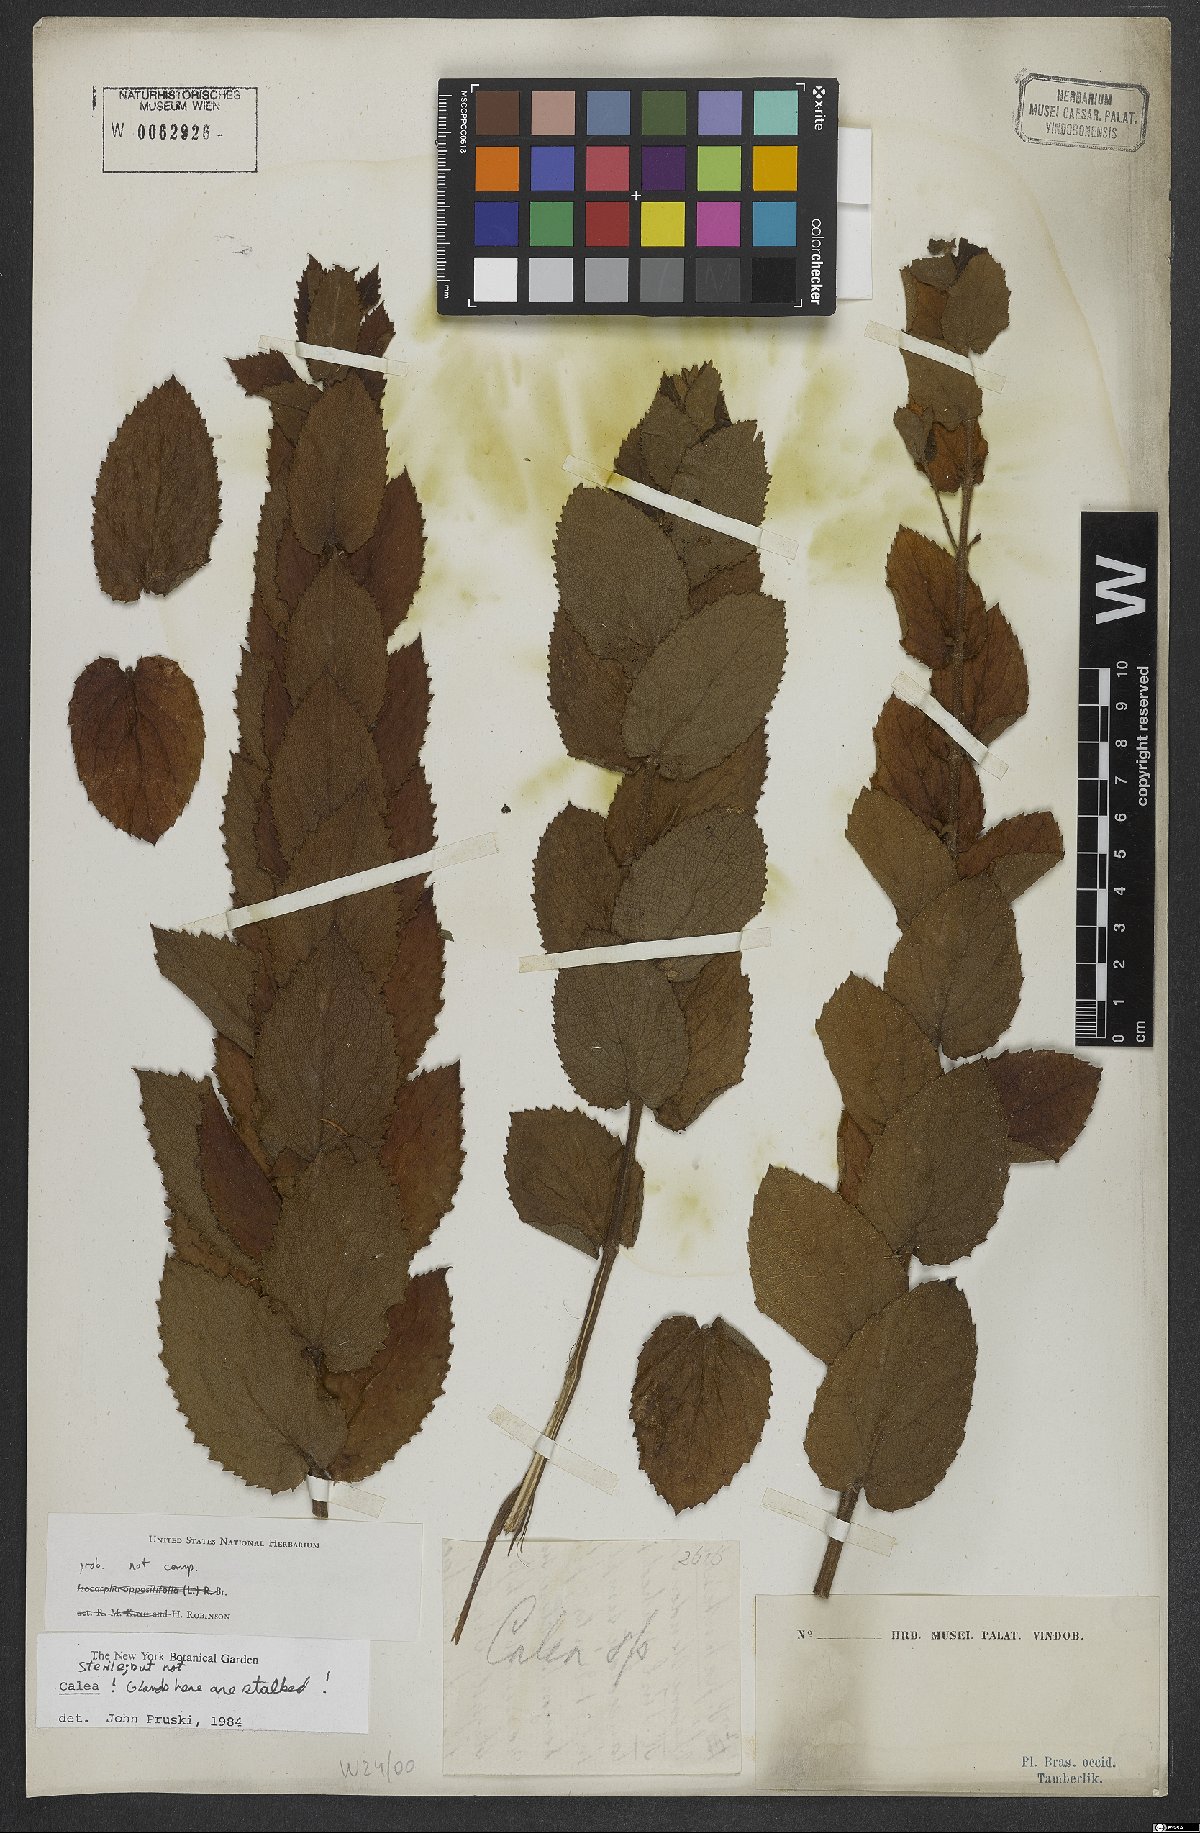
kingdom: Plantae
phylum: Tracheophyta
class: Magnoliopsida
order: Asterales
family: Asteraceae
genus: Calea
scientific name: Calea
